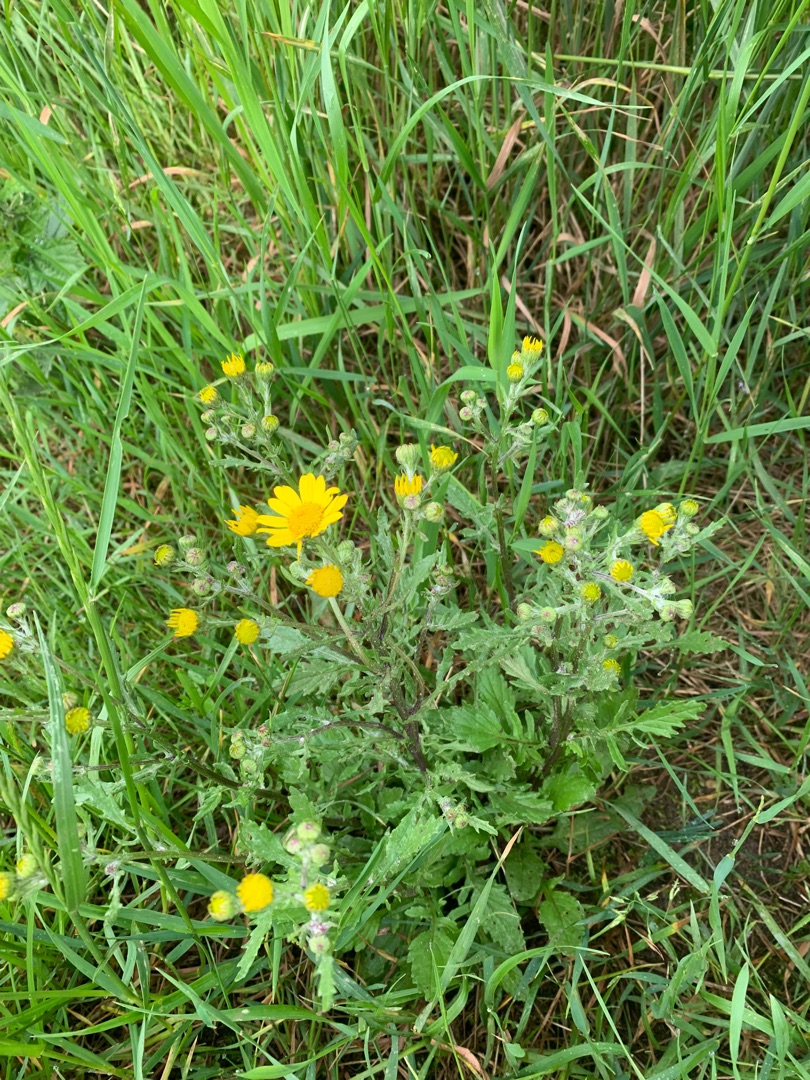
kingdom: Plantae
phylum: Tracheophyta
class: Magnoliopsida
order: Asterales
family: Asteraceae
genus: Senecio
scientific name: Senecio leucanthemifolius
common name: Vår-brandbæger
